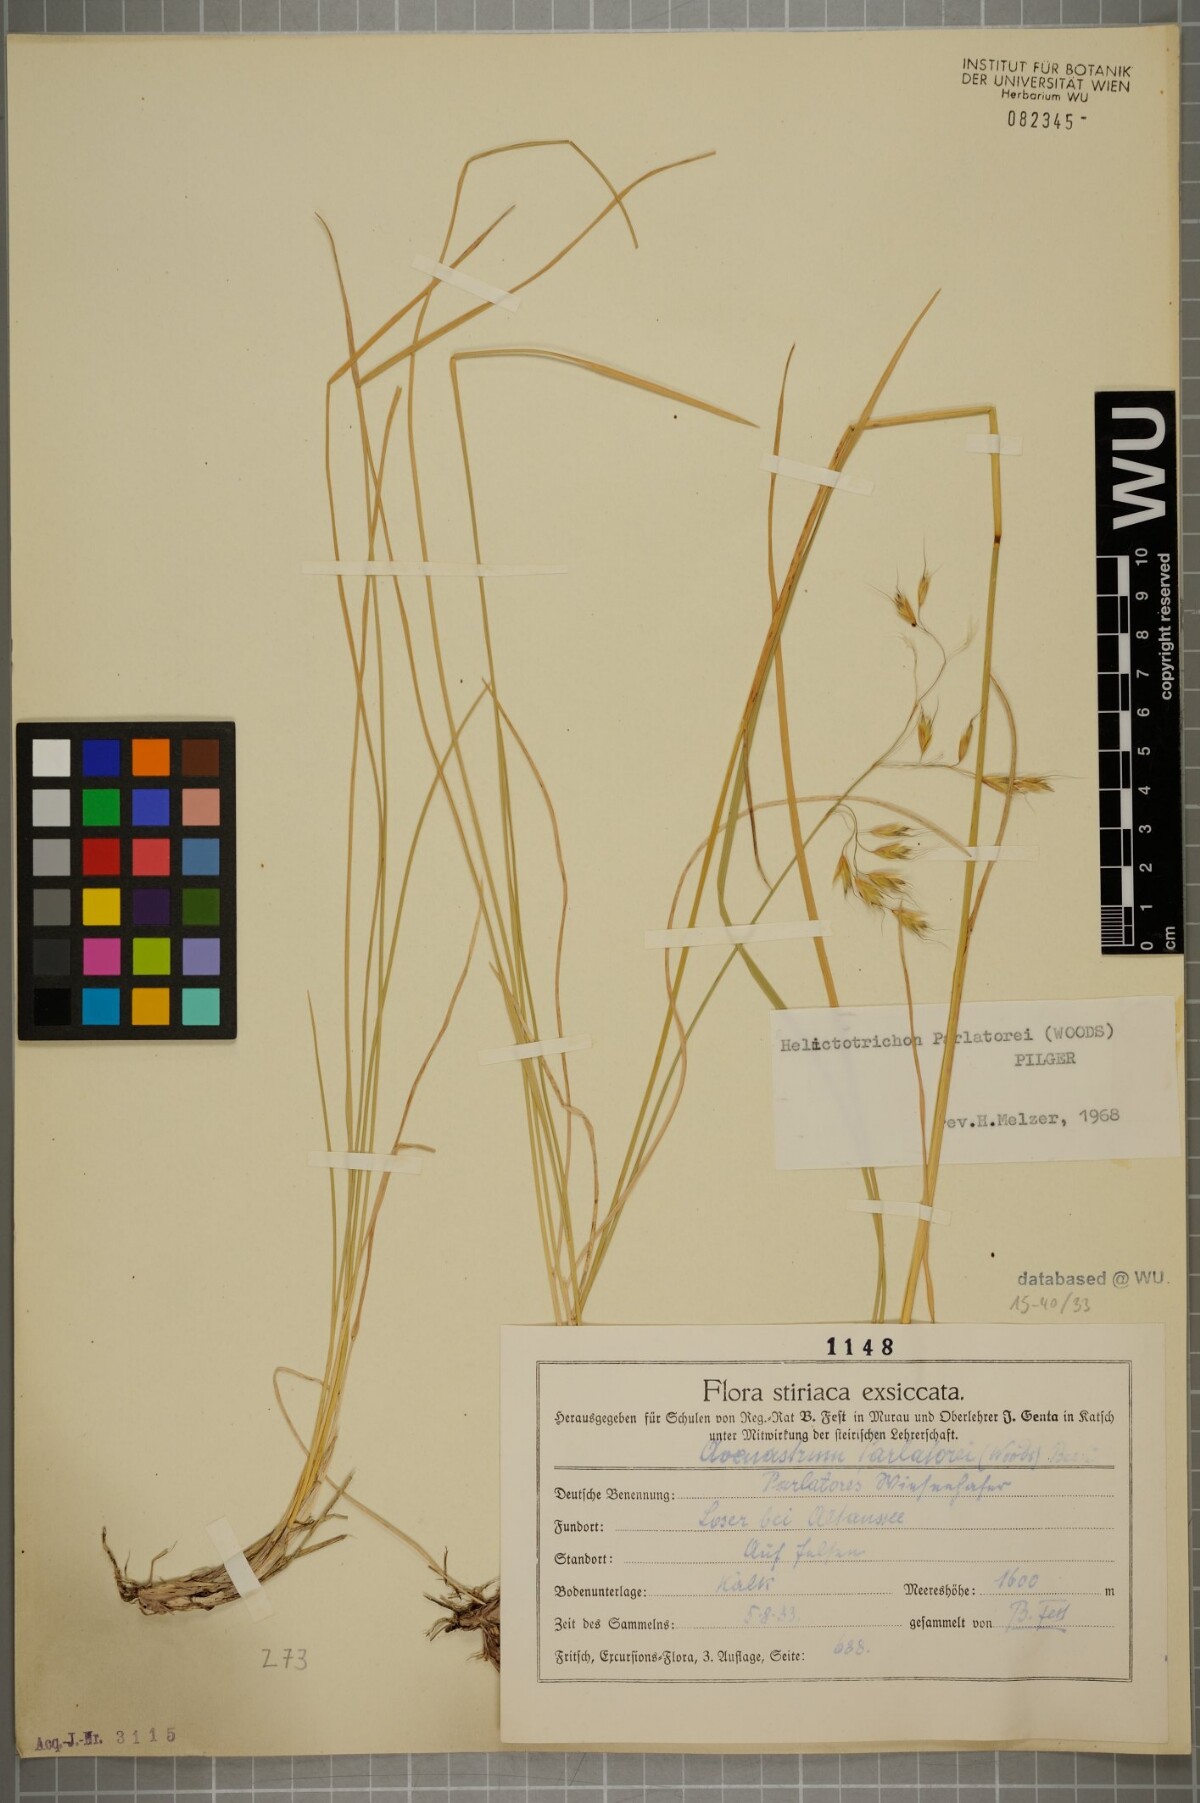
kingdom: Plantae
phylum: Tracheophyta
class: Liliopsida
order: Poales
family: Poaceae
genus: Helictotrichon
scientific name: Helictotrichon parlatorei
